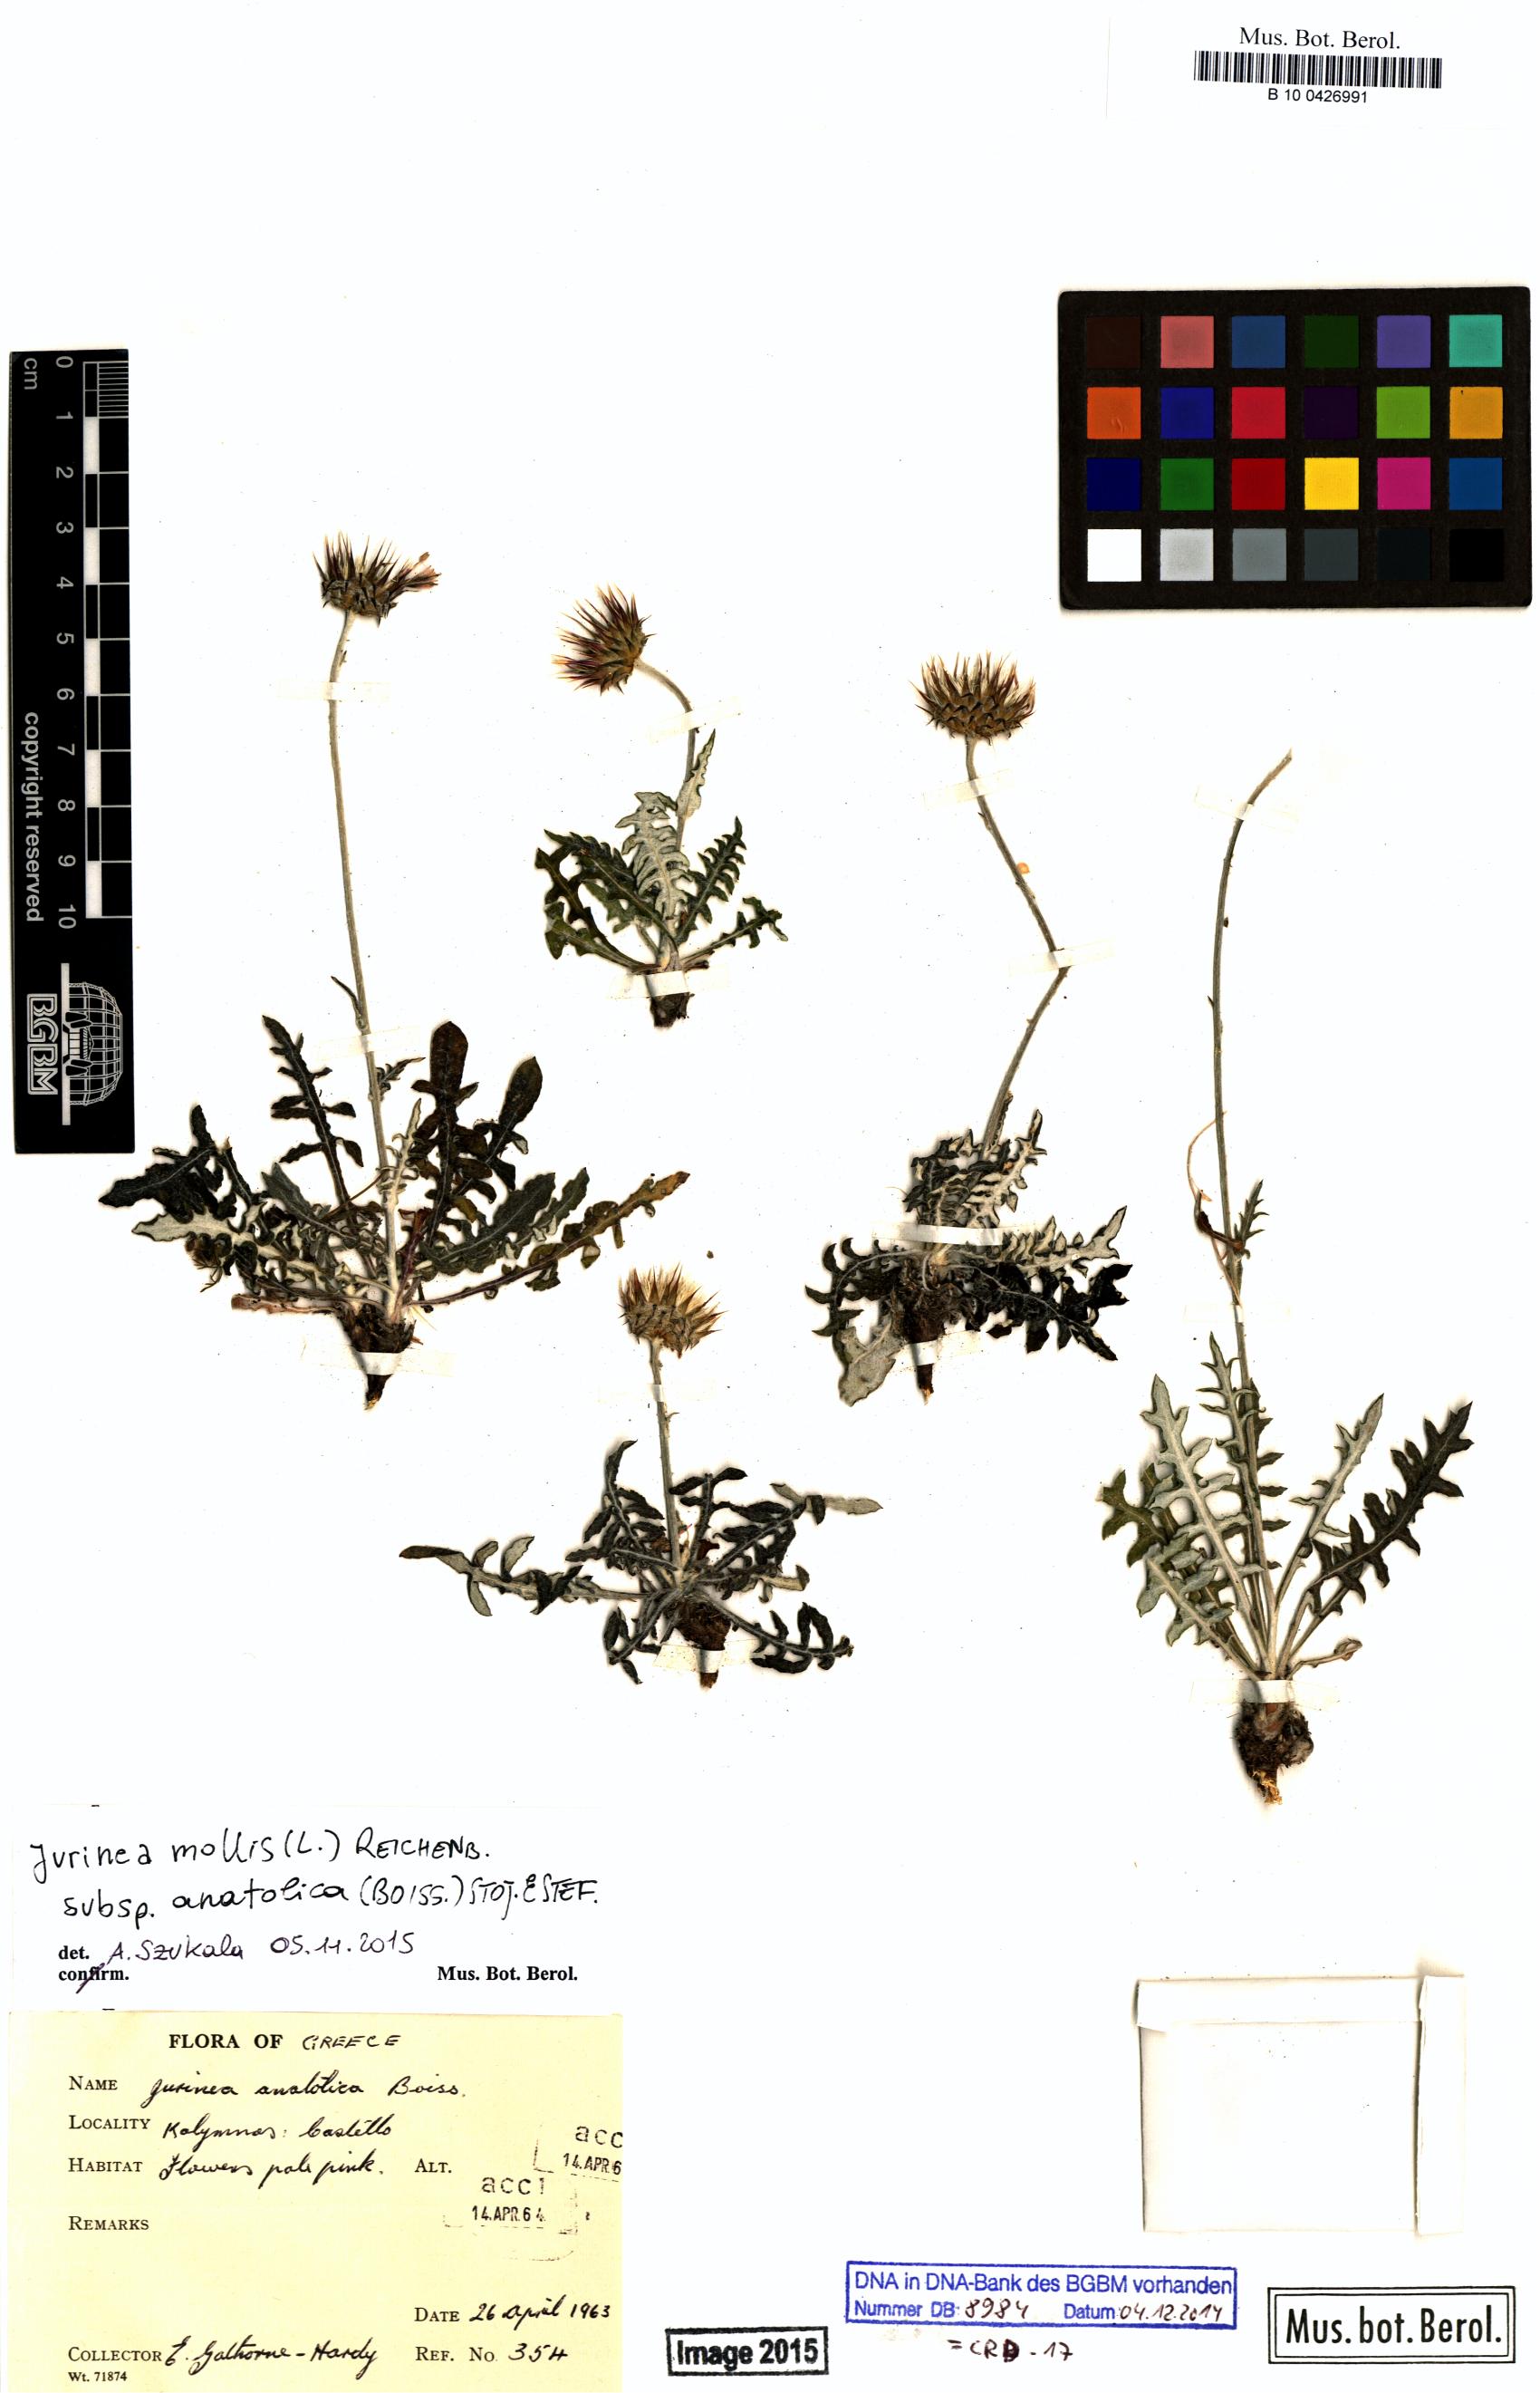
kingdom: Plantae
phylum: Tracheophyta
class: Magnoliopsida
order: Asterales
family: Asteraceae
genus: Jurinea
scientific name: Jurinea consanguinea
